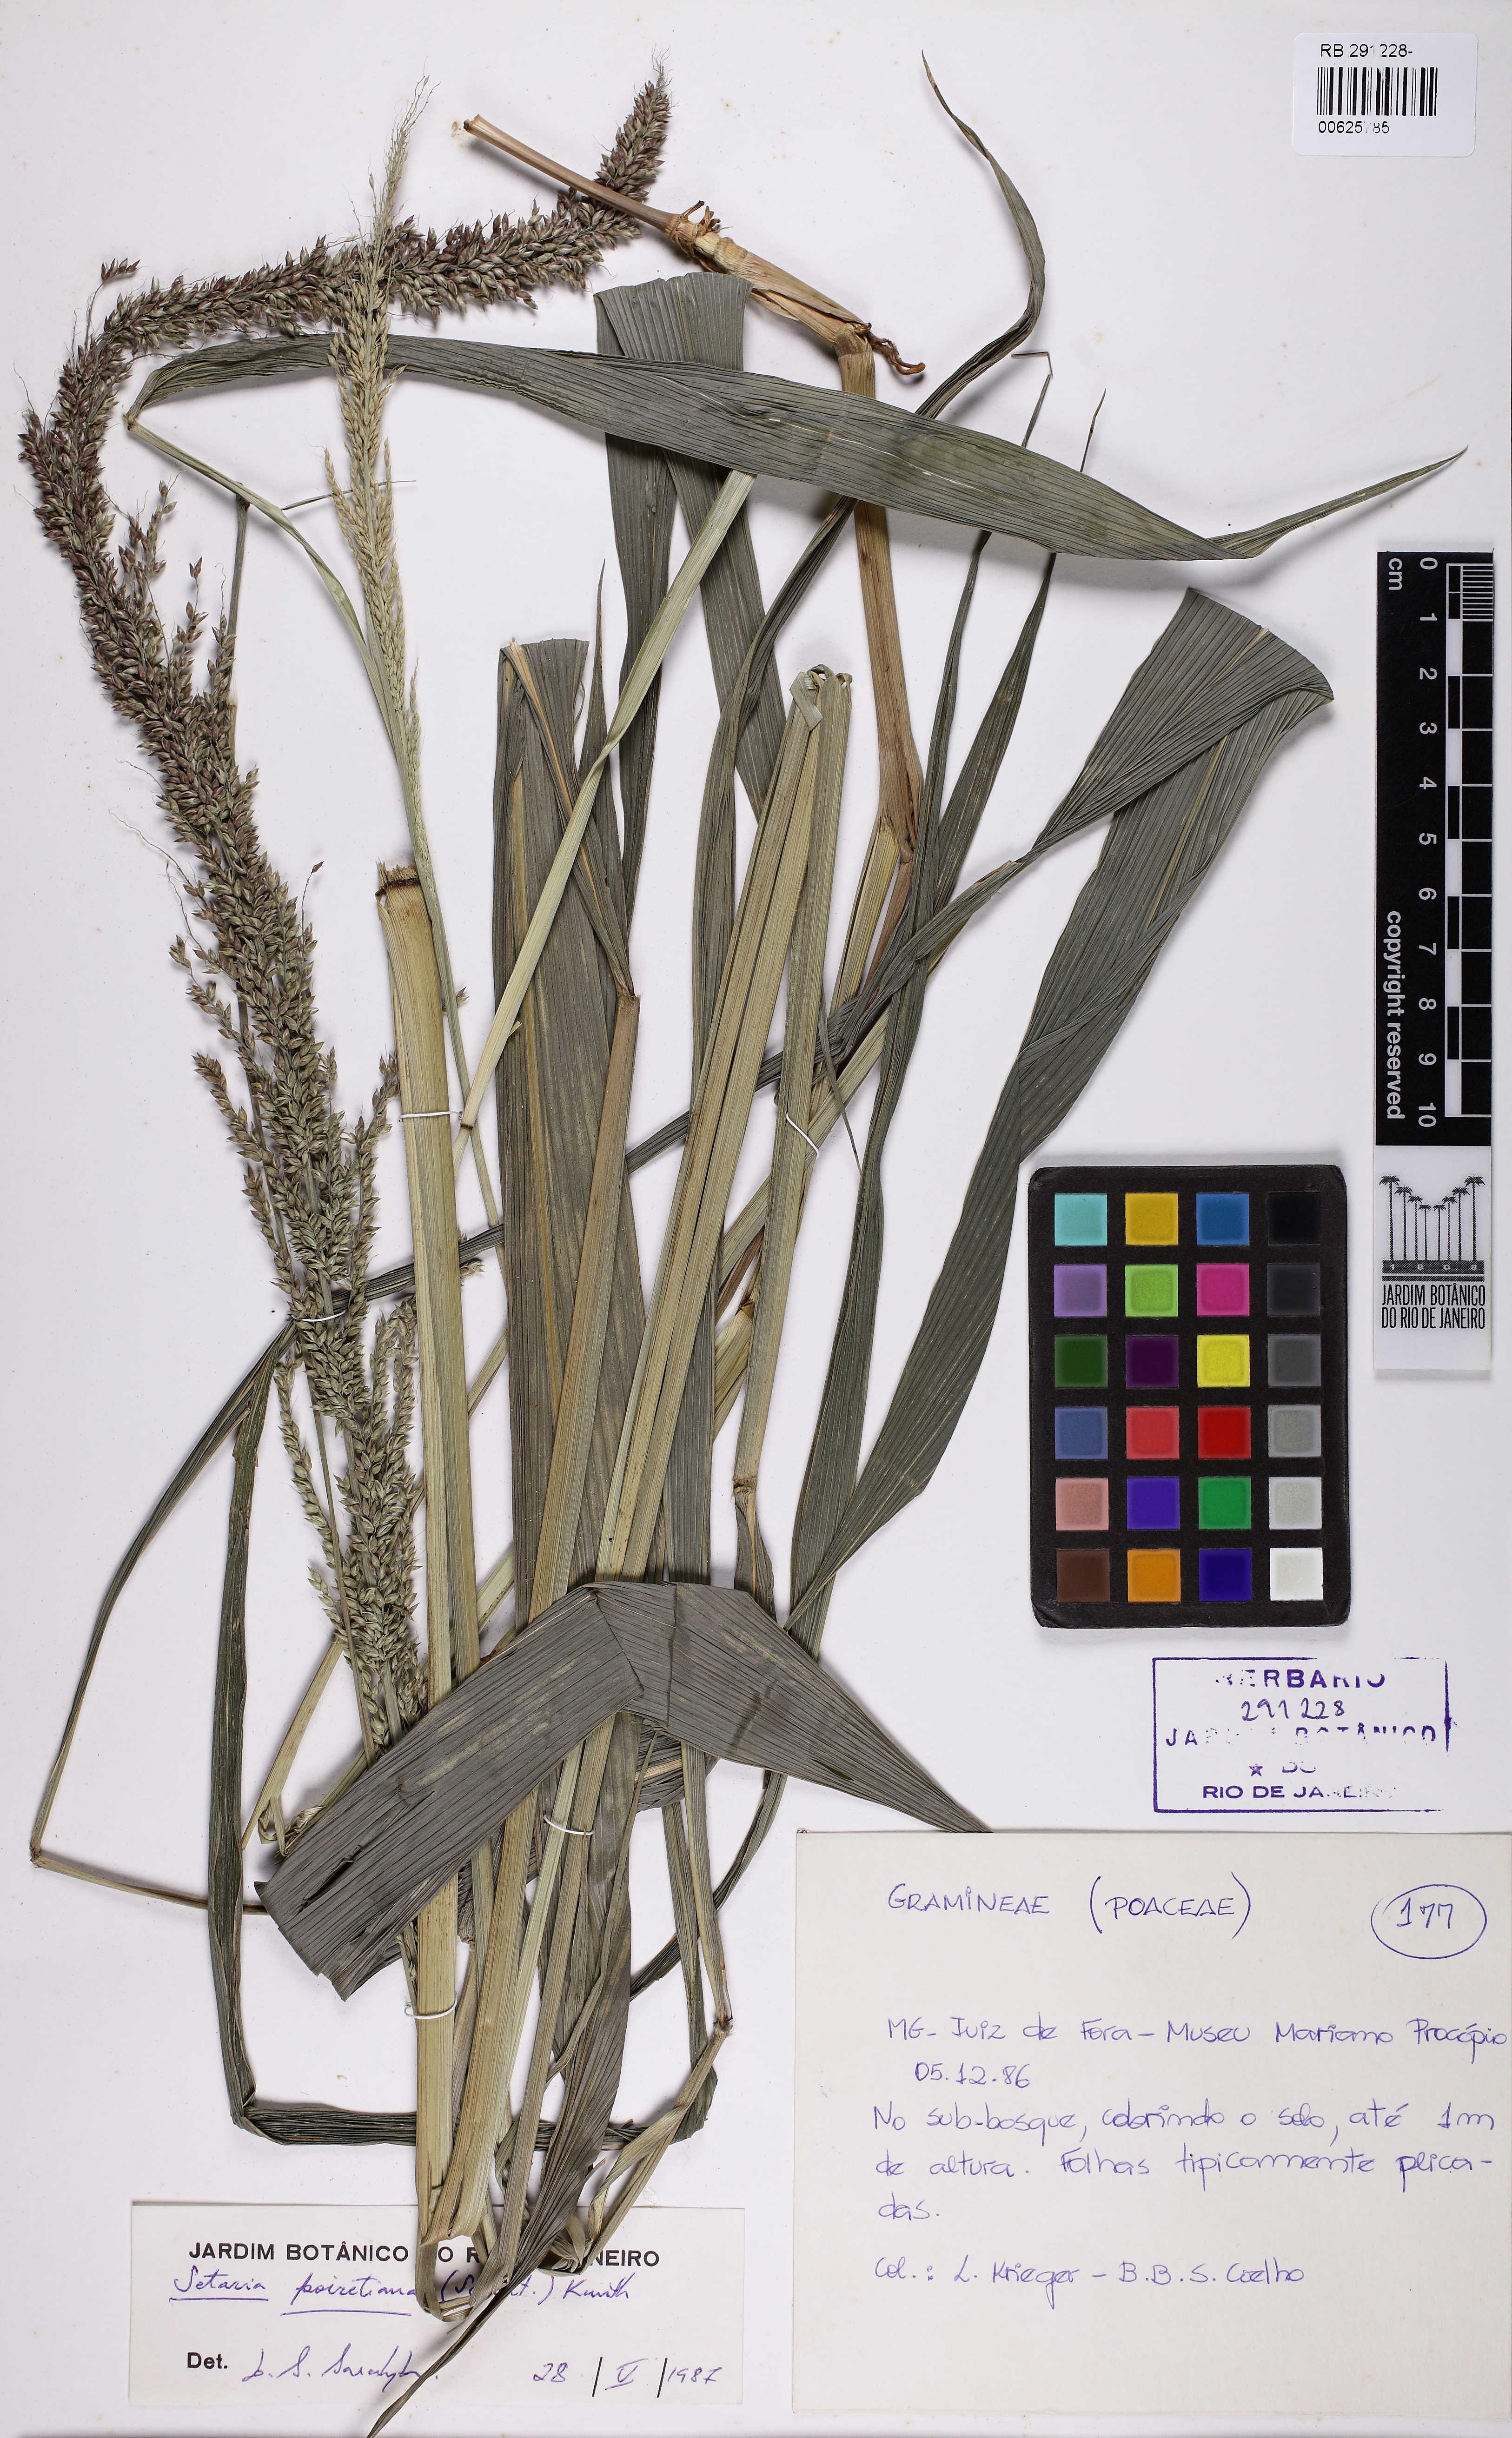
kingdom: Plantae
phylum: Tracheophyta
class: Liliopsida
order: Poales
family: Poaceae
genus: Setaria
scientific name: Setaria sulcata
